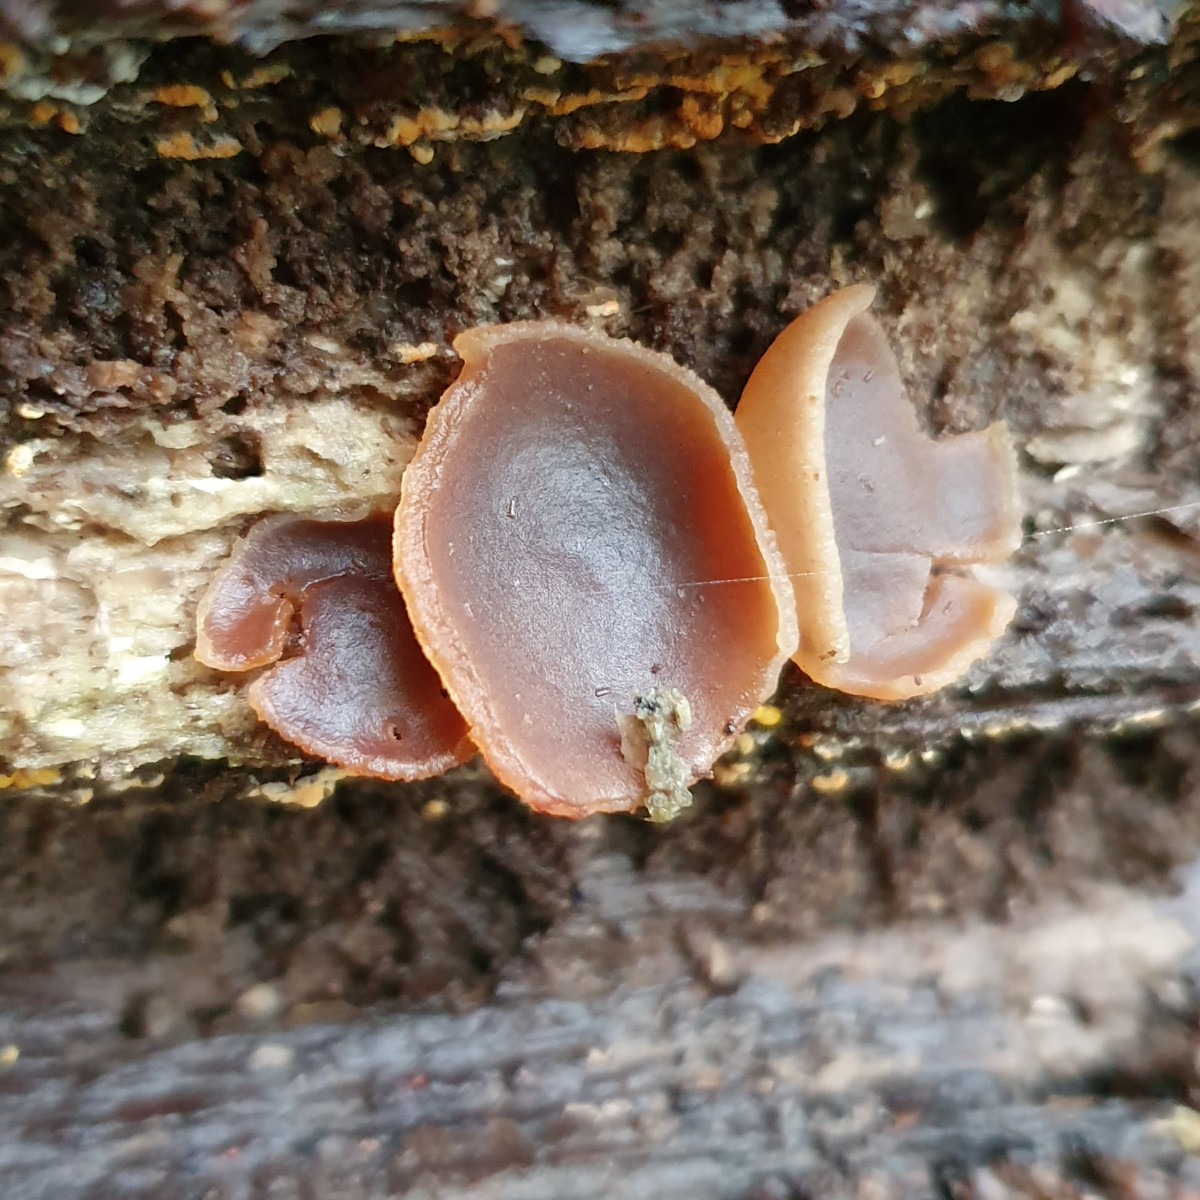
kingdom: Fungi
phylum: Ascomycota
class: Pezizomycetes
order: Pezizales
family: Pezizaceae
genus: Peziza
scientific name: Peziza varia
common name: Ved-bægersvamp
